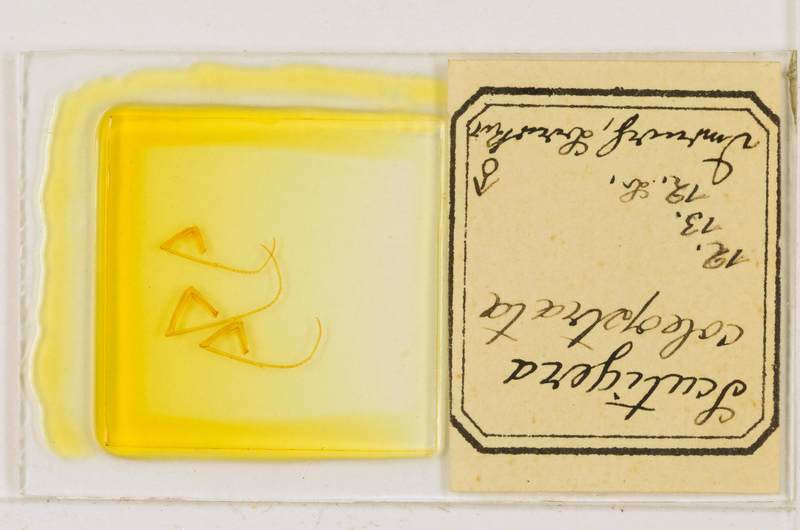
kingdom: Animalia
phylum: Arthropoda
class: Chilopoda
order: Scutigeromorpha
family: Scutigeridae
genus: Scutigera
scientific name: Scutigera coleoptrata
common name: House centipede
